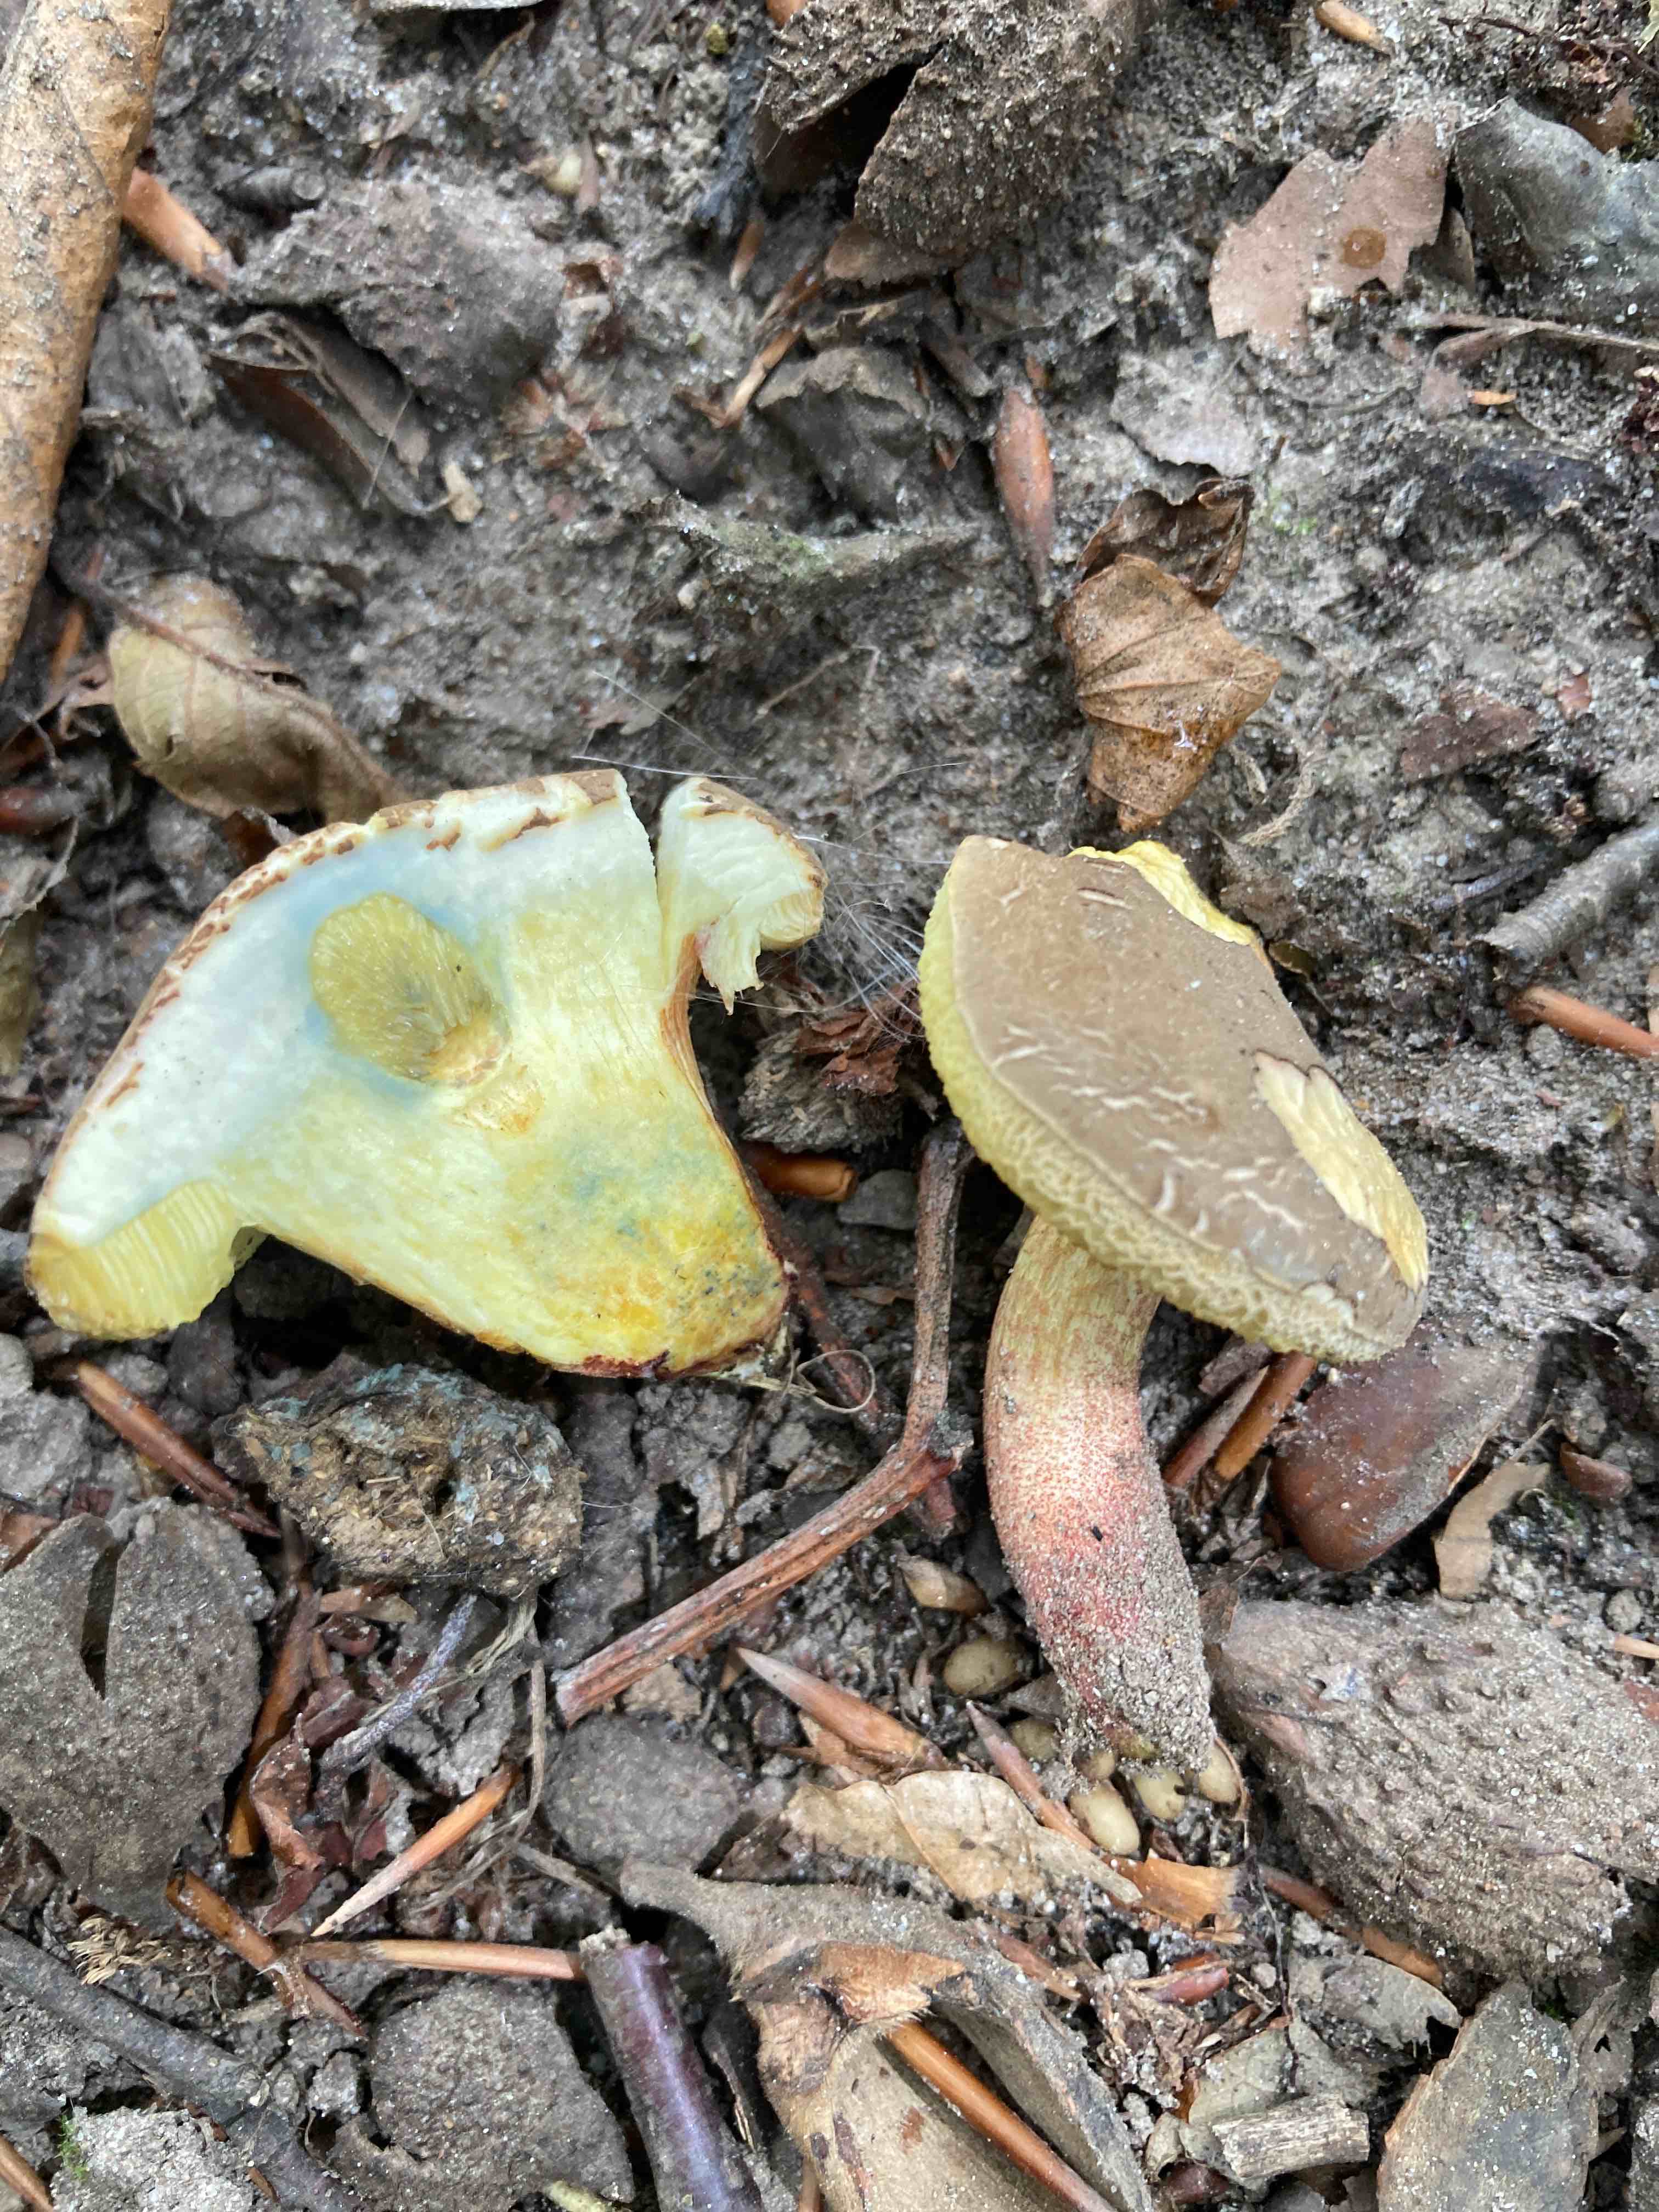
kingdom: Fungi
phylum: Basidiomycota
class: Agaricomycetes
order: Boletales
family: Boletaceae
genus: Xerocomellus
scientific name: Xerocomellus cisalpinus
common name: finsprukken rørhat
